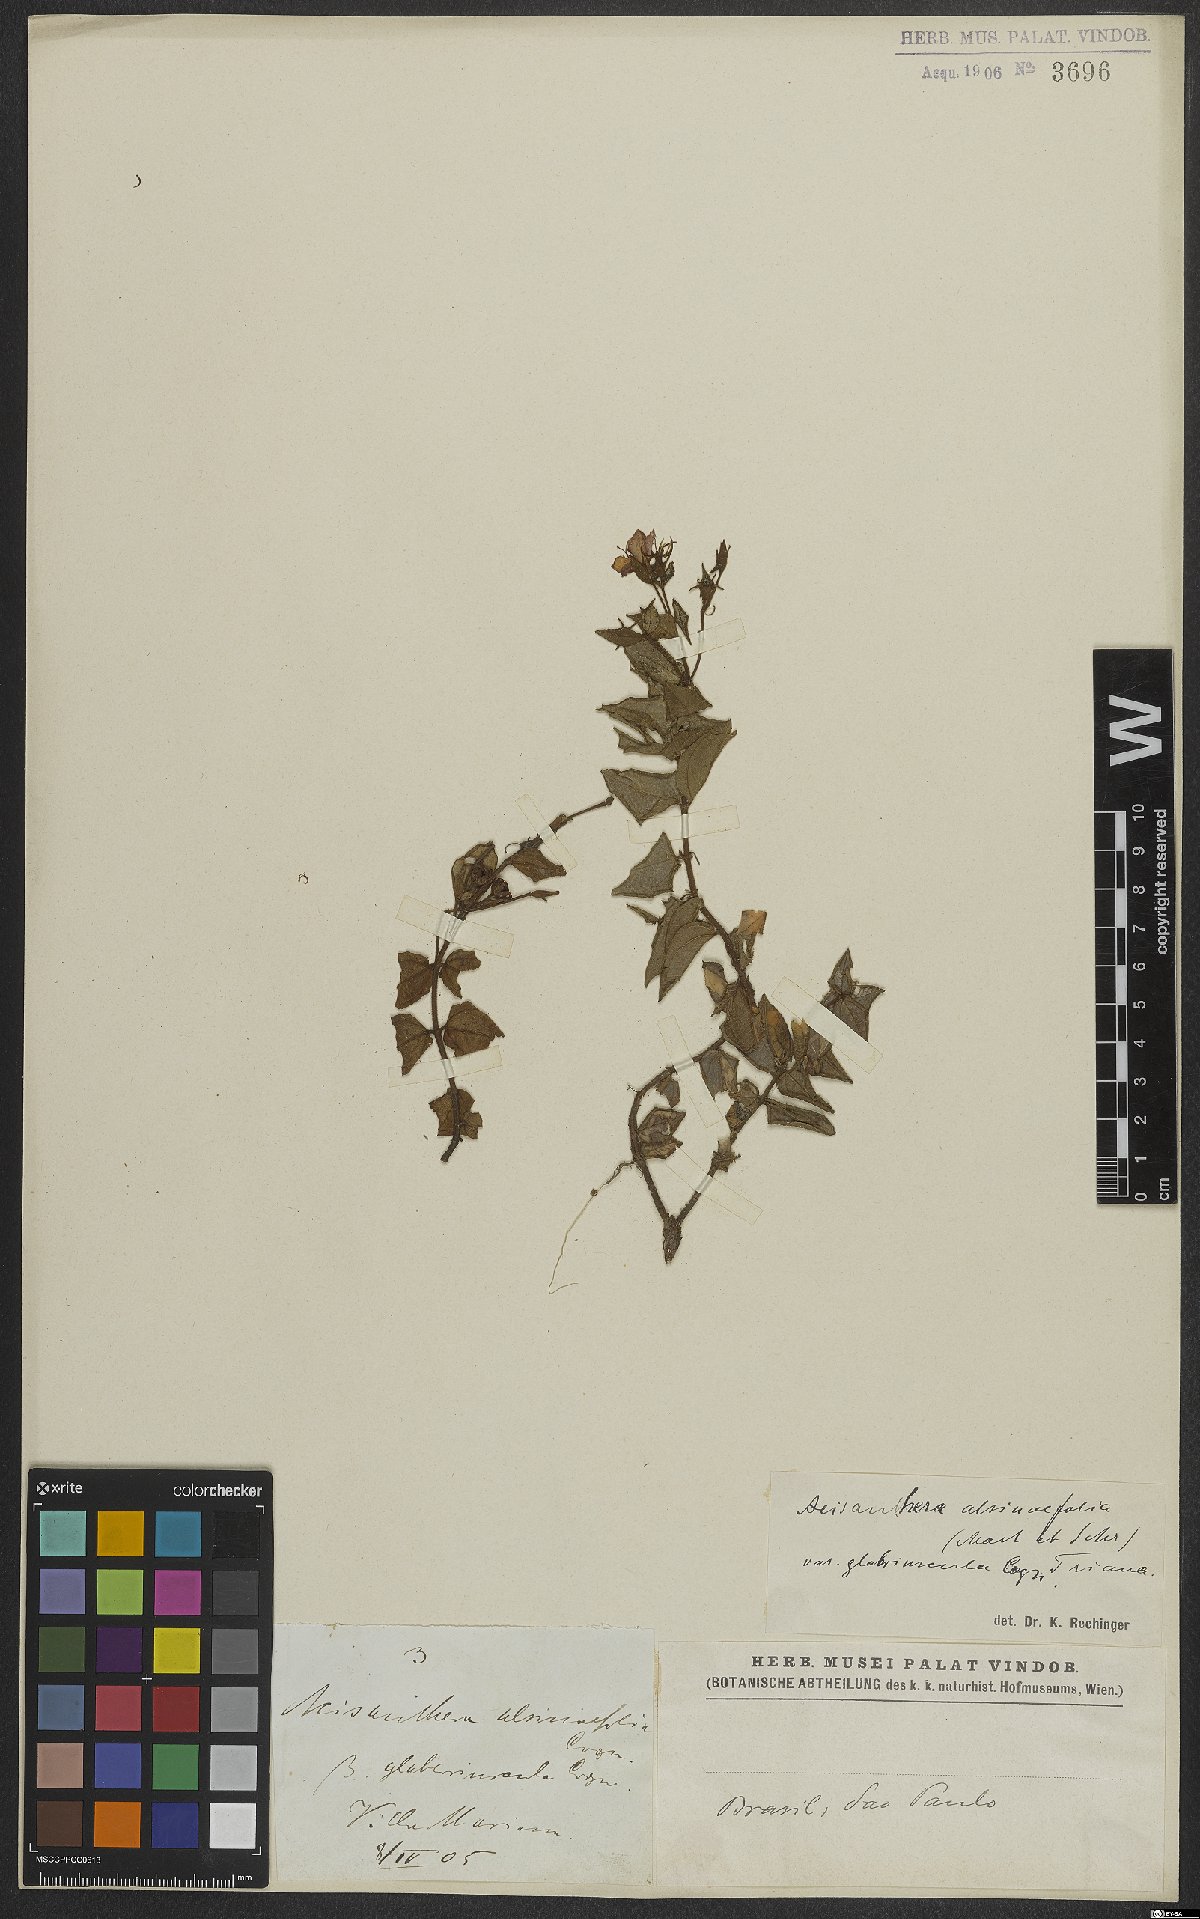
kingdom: Plantae
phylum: Tracheophyta
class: Magnoliopsida
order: Myrtales
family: Melastomataceae
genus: Acisanthera
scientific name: Acisanthera alsinefolia
